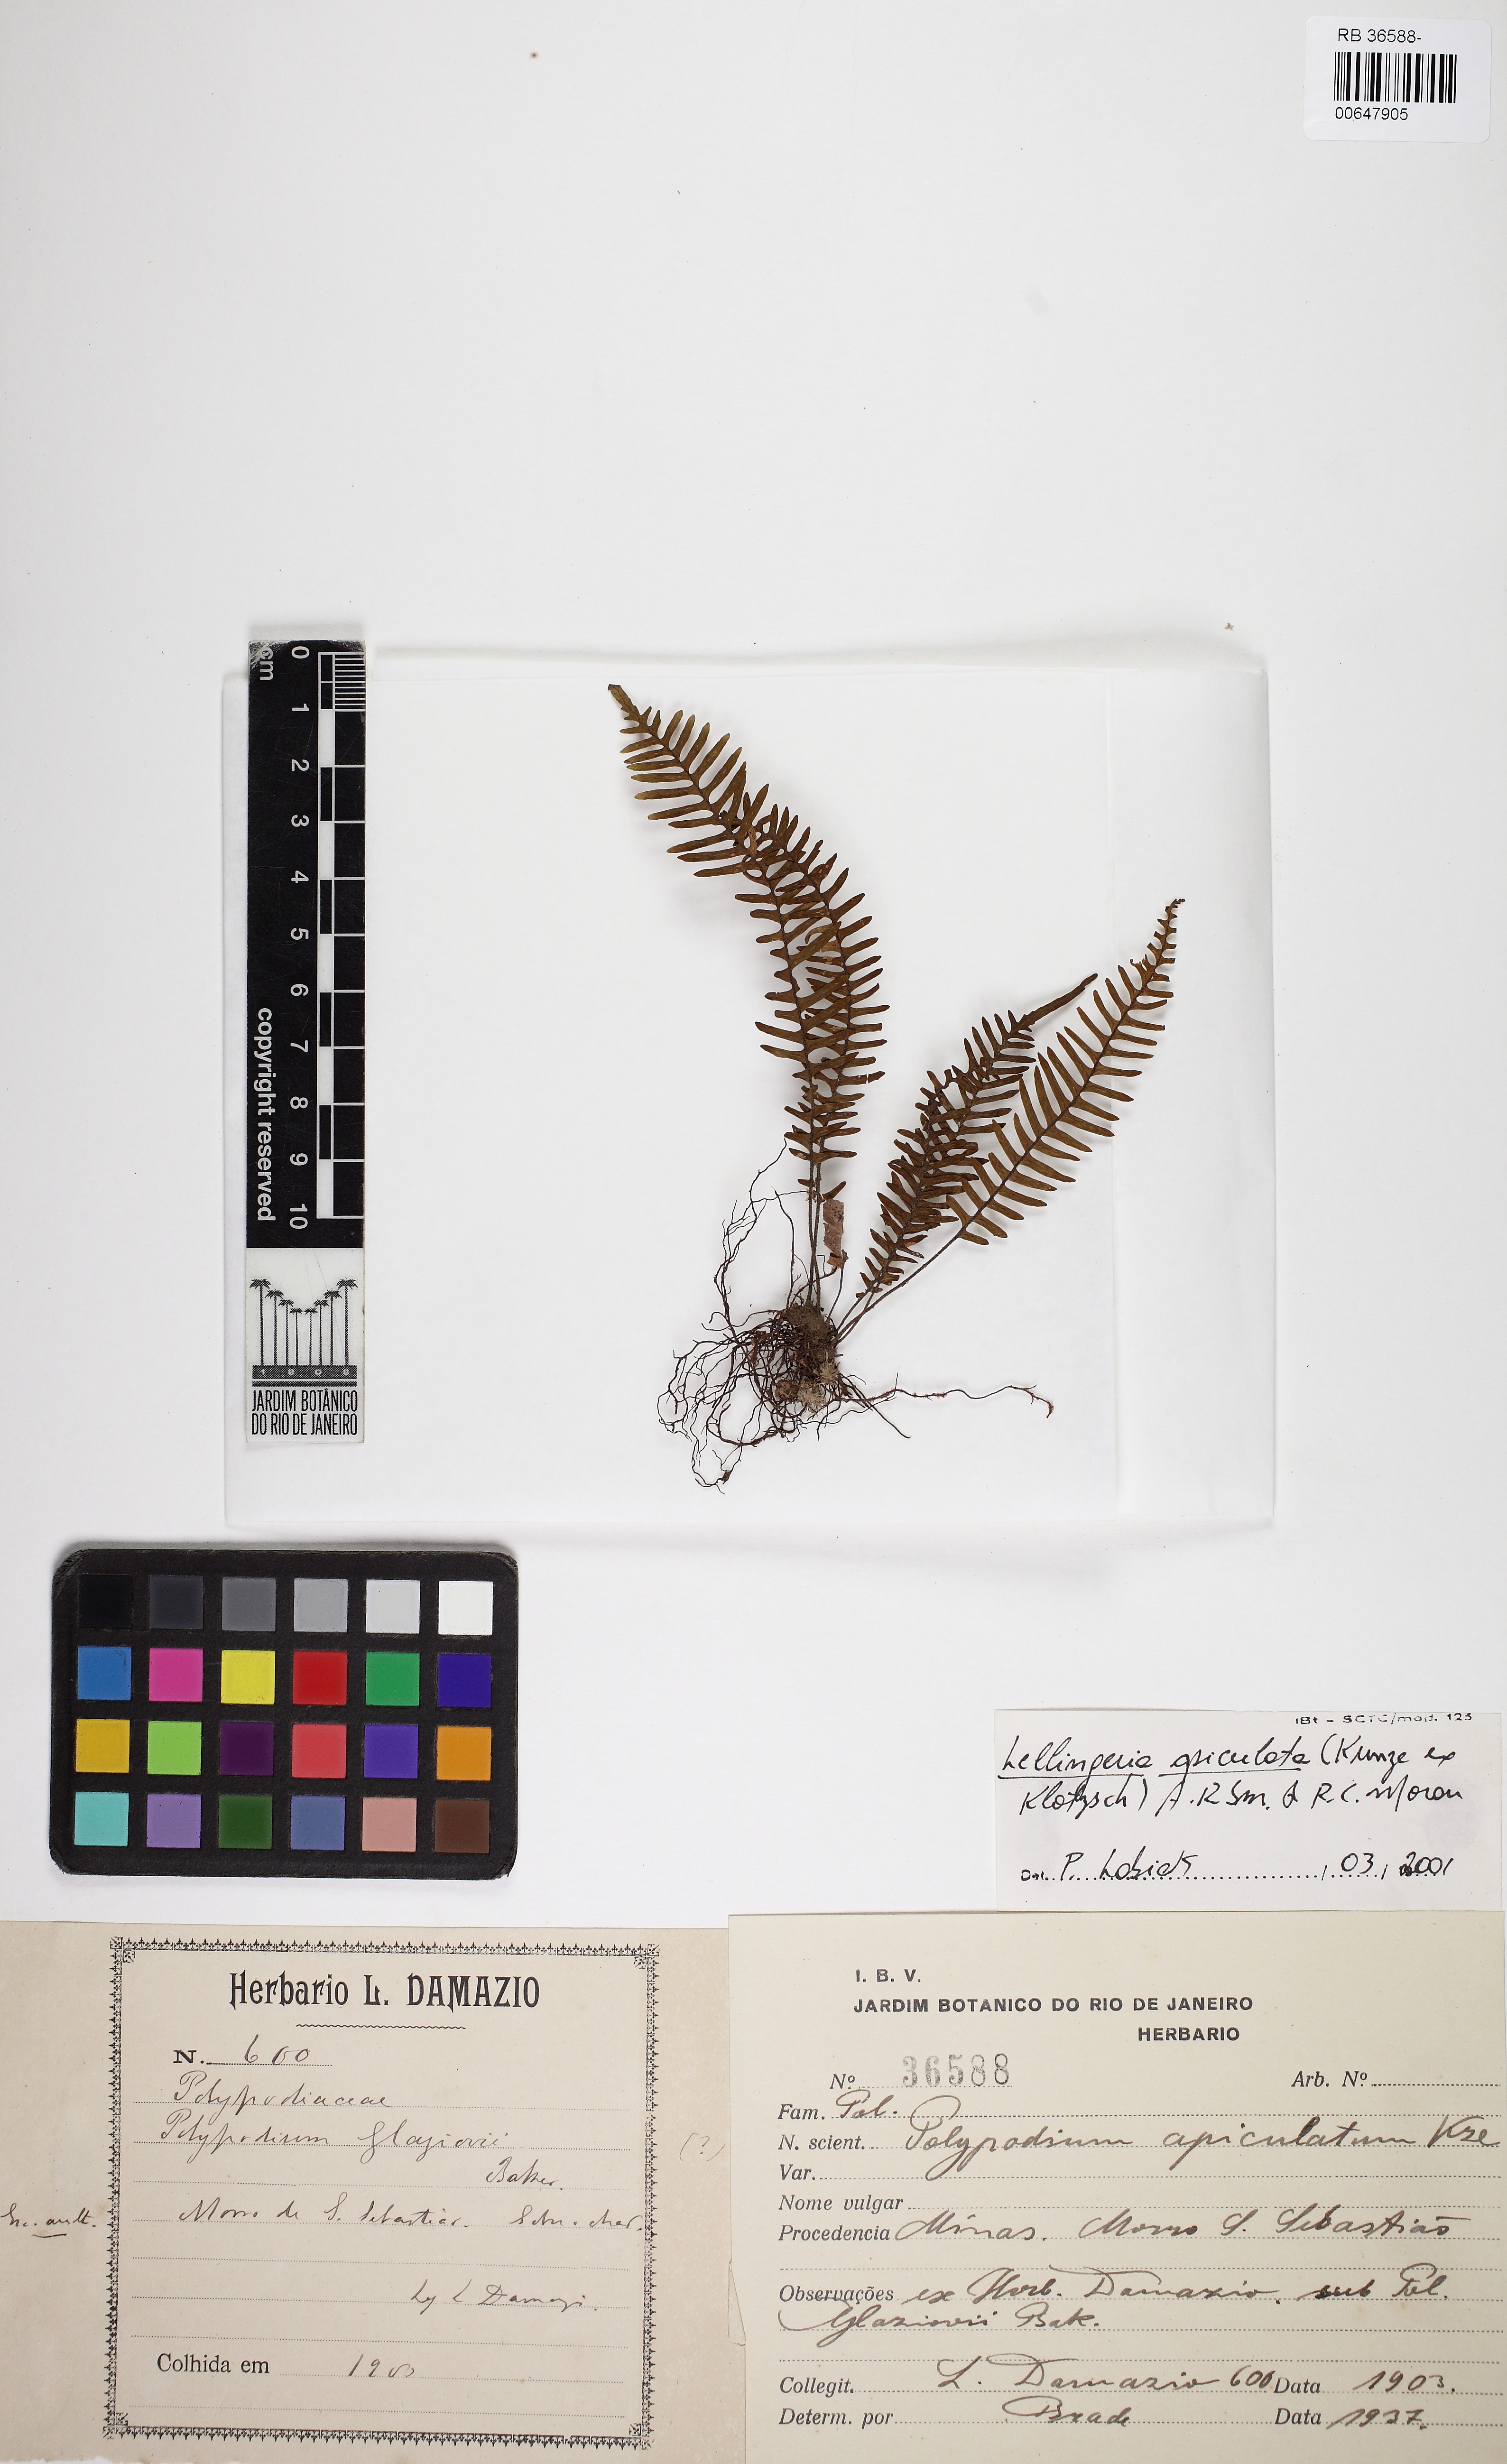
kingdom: Plantae
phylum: Tracheophyta
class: Polypodiopsida
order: Polypodiales
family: Polypodiaceae
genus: Lellingeria
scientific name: Lellingeria apiculata
